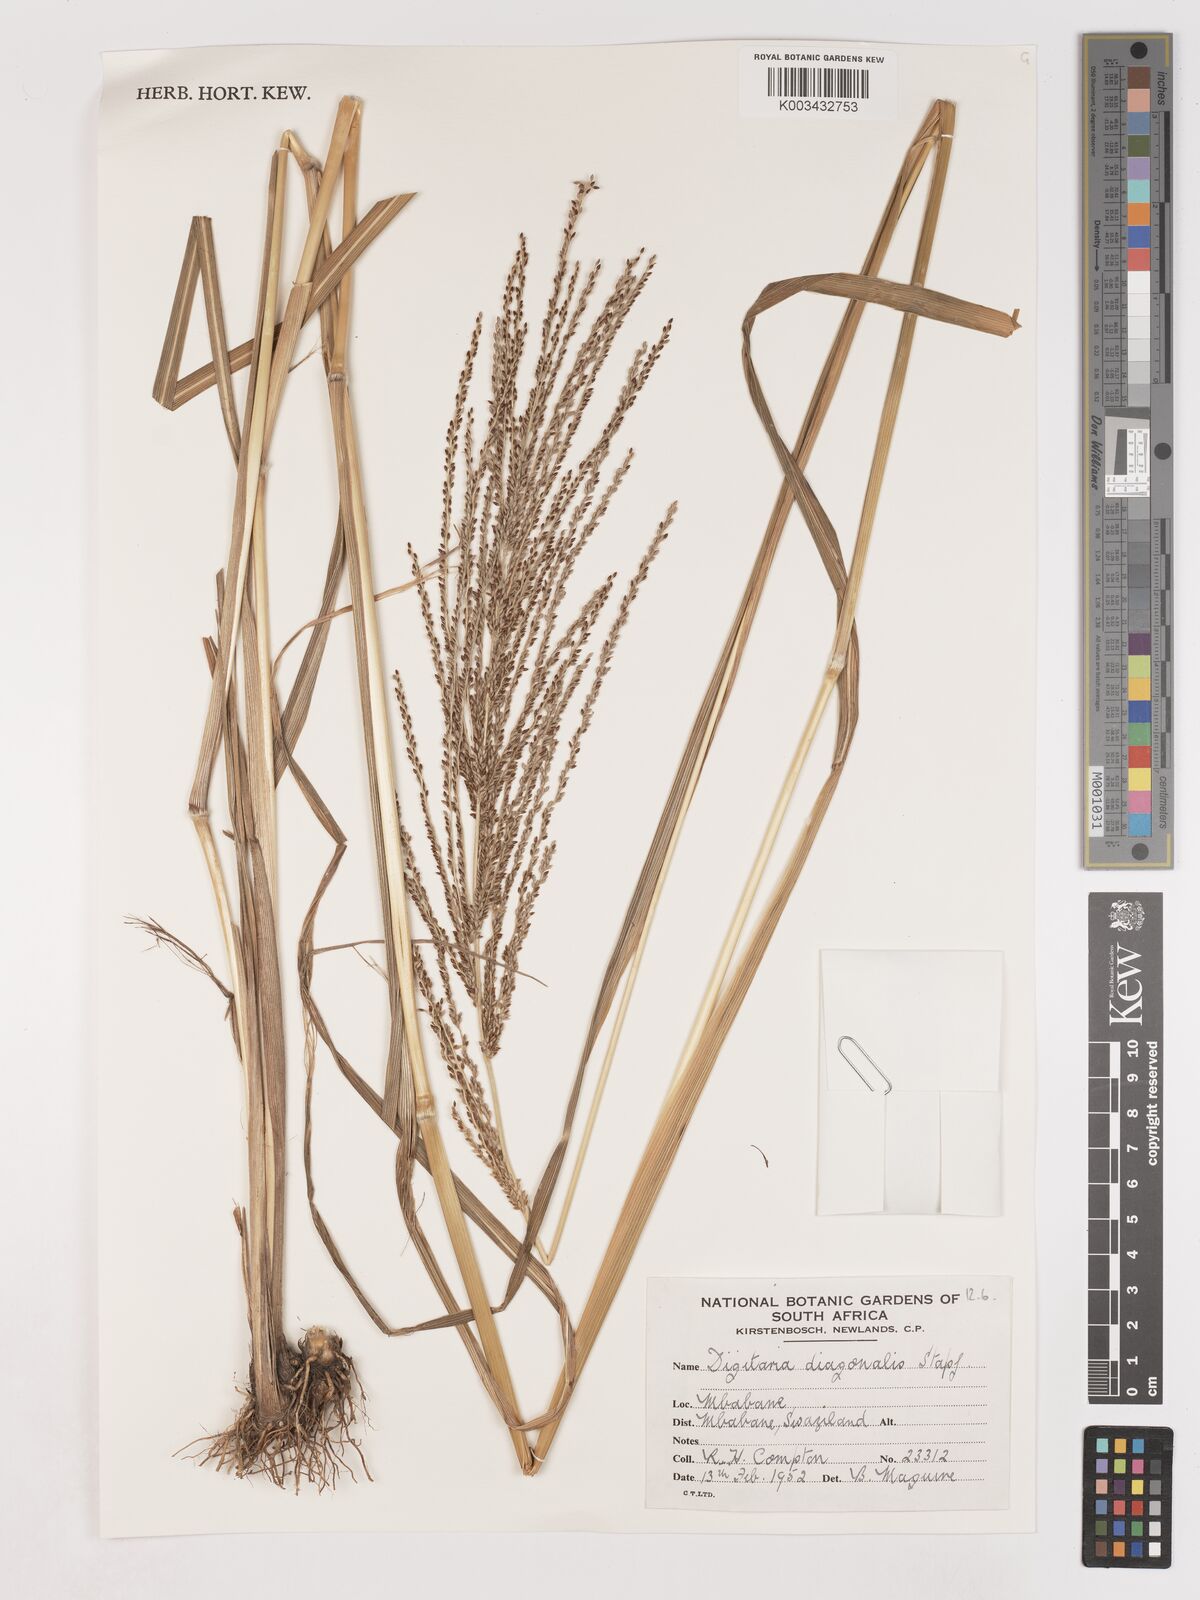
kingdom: Plantae
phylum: Tracheophyta
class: Liliopsida
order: Poales
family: Poaceae
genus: Digitaria
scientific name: Digitaria diagonalis
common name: Brown-seed finger grass
